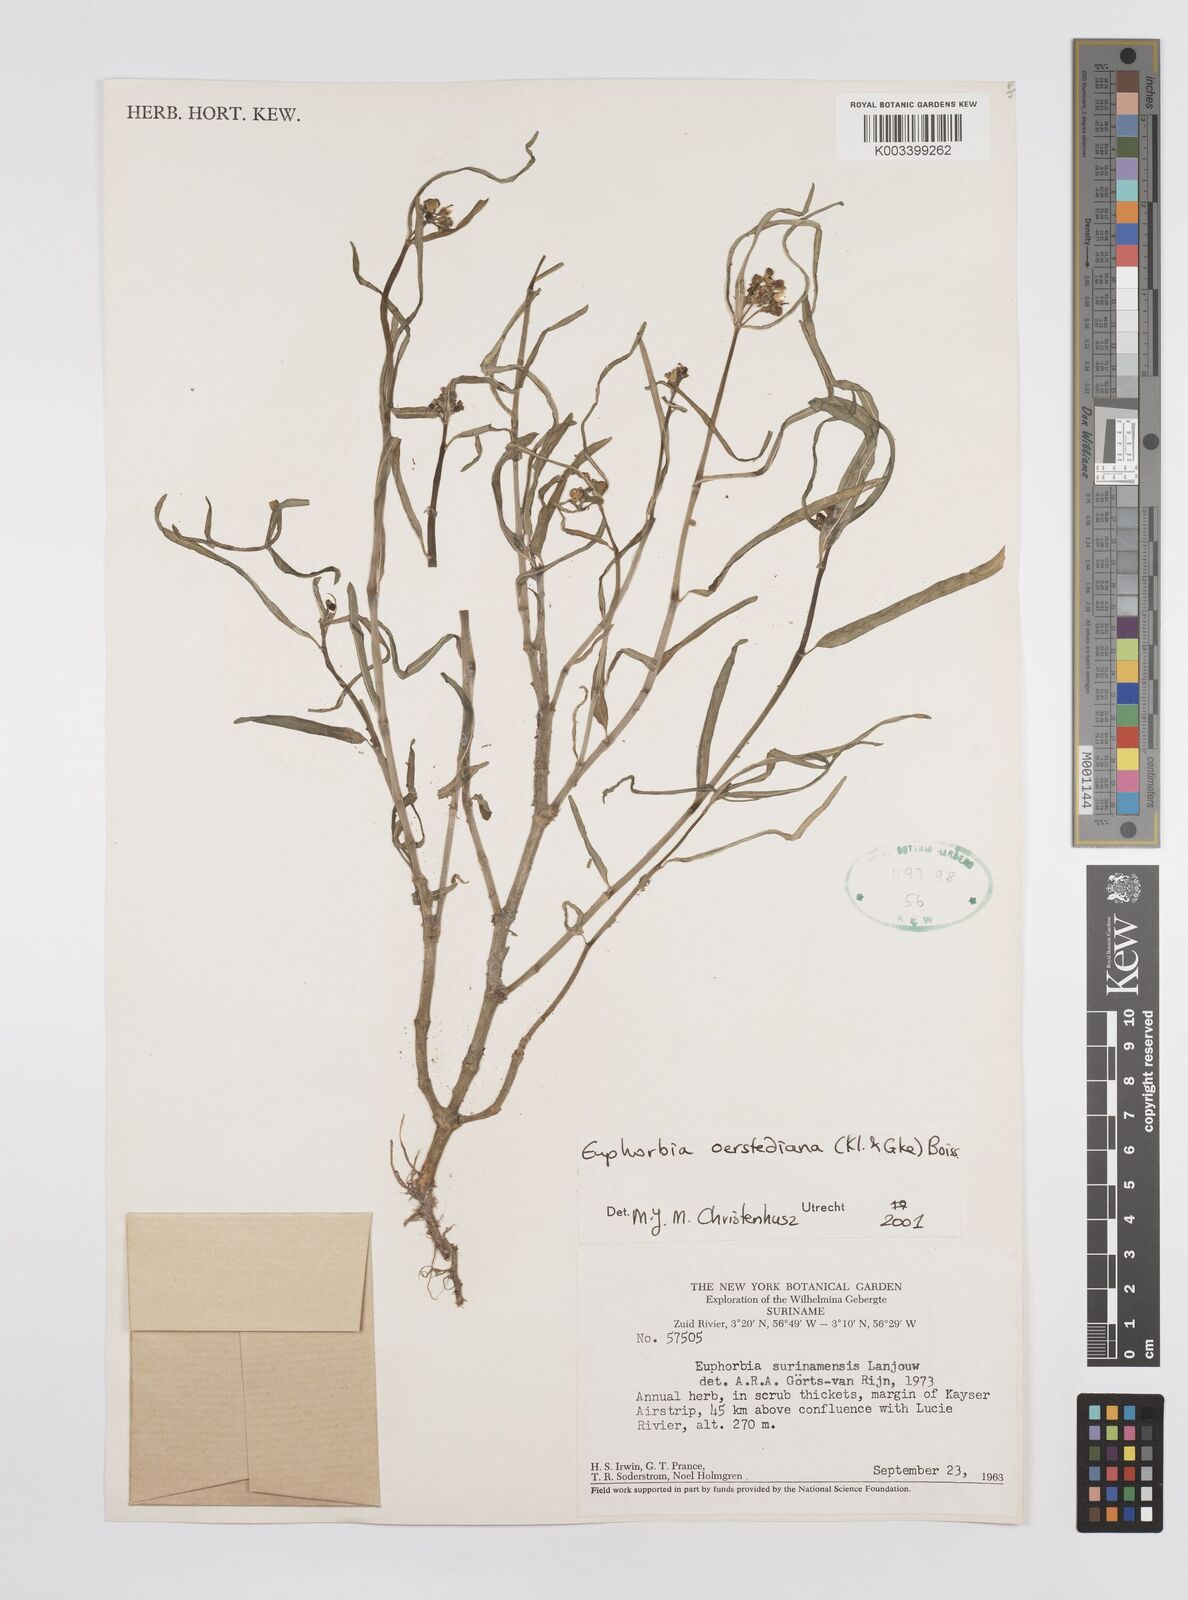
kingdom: Plantae
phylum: Tracheophyta
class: Magnoliopsida
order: Malpighiales
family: Euphorbiaceae
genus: Euphorbia
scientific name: Euphorbia oerstediana
